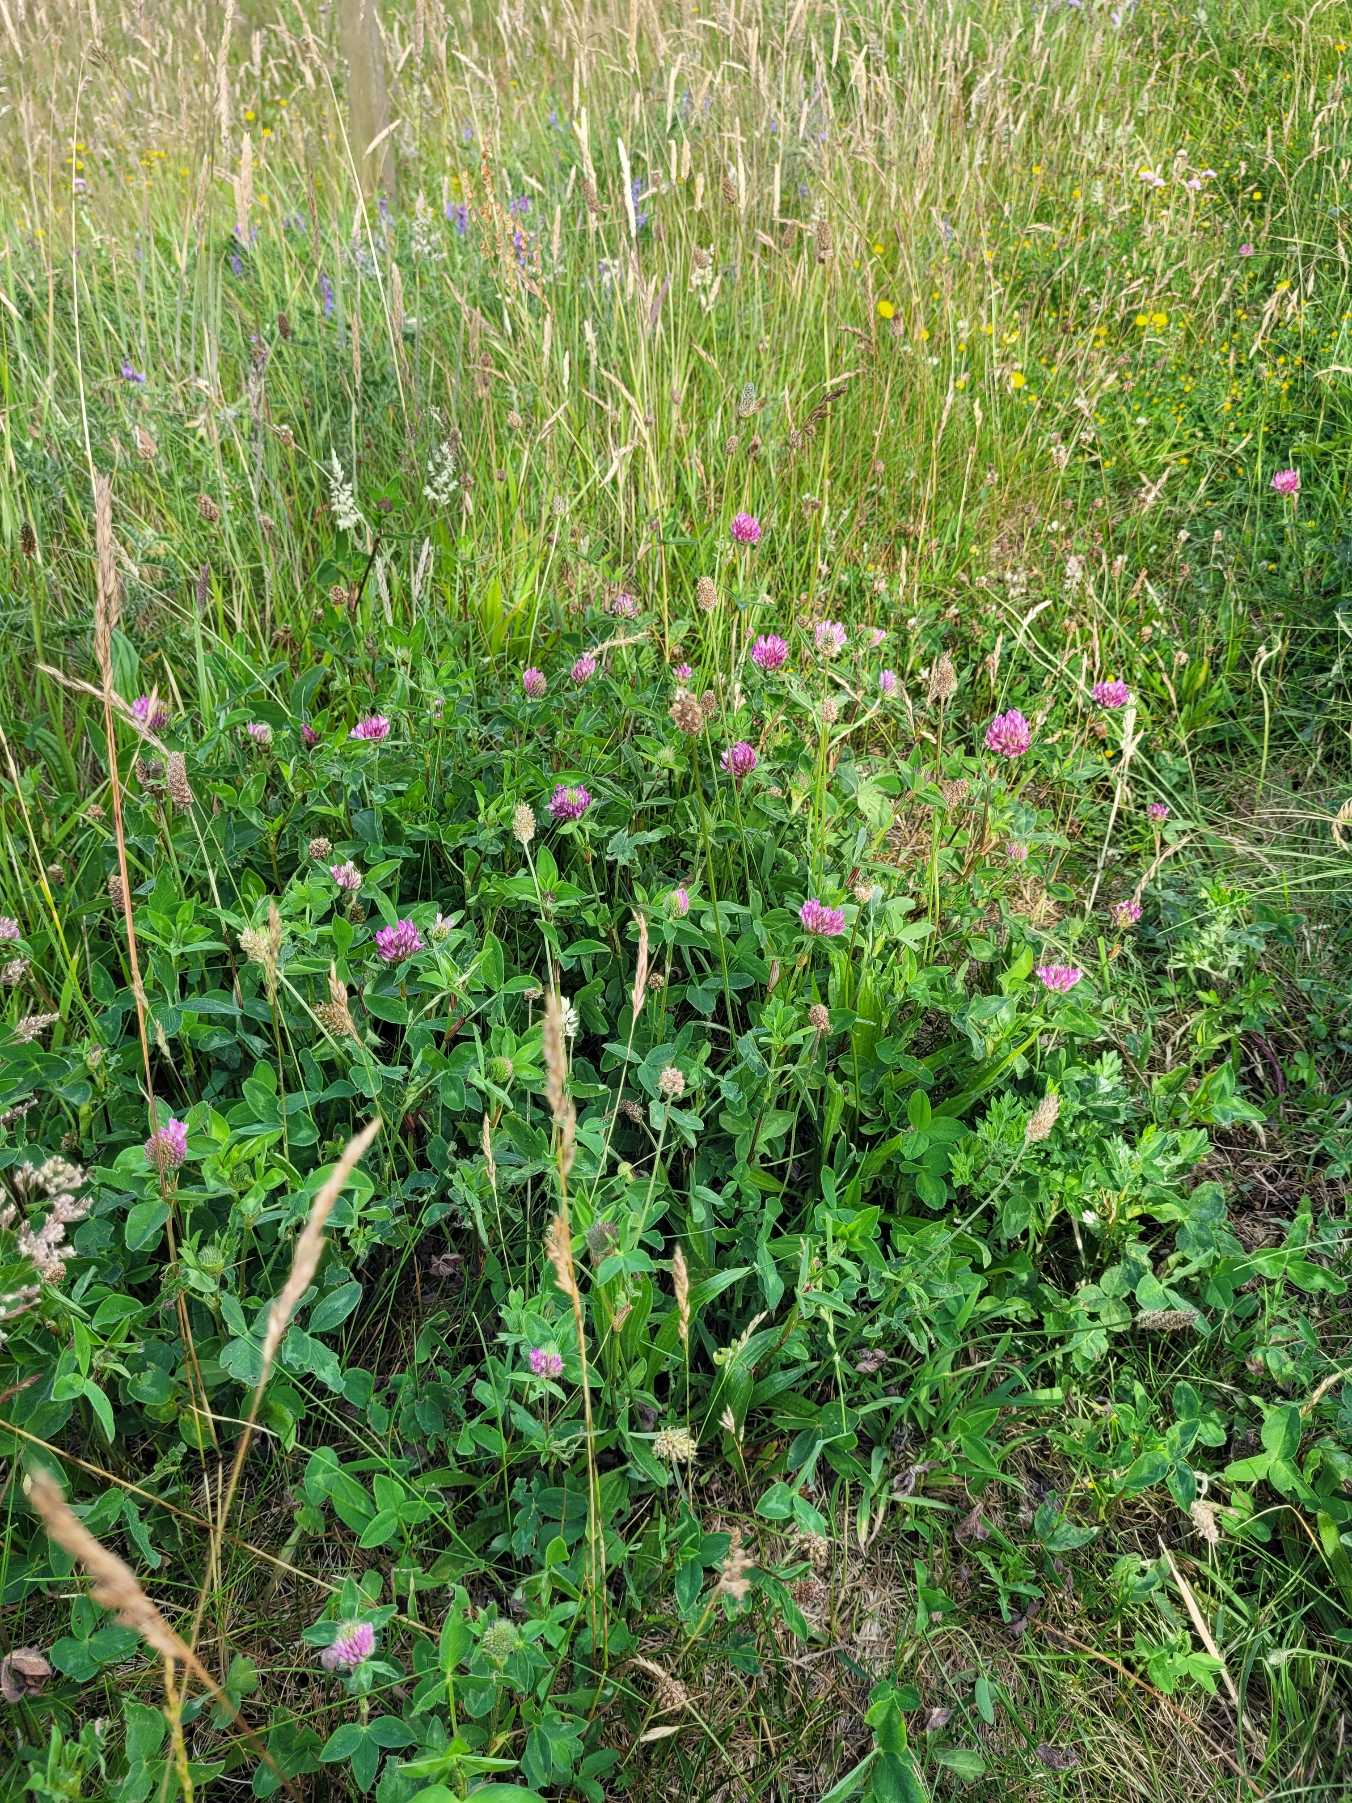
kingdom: Plantae
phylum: Tracheophyta
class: Magnoliopsida
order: Fabales
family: Fabaceae
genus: Trifolium
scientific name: Trifolium pratense
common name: Rød-kløver
